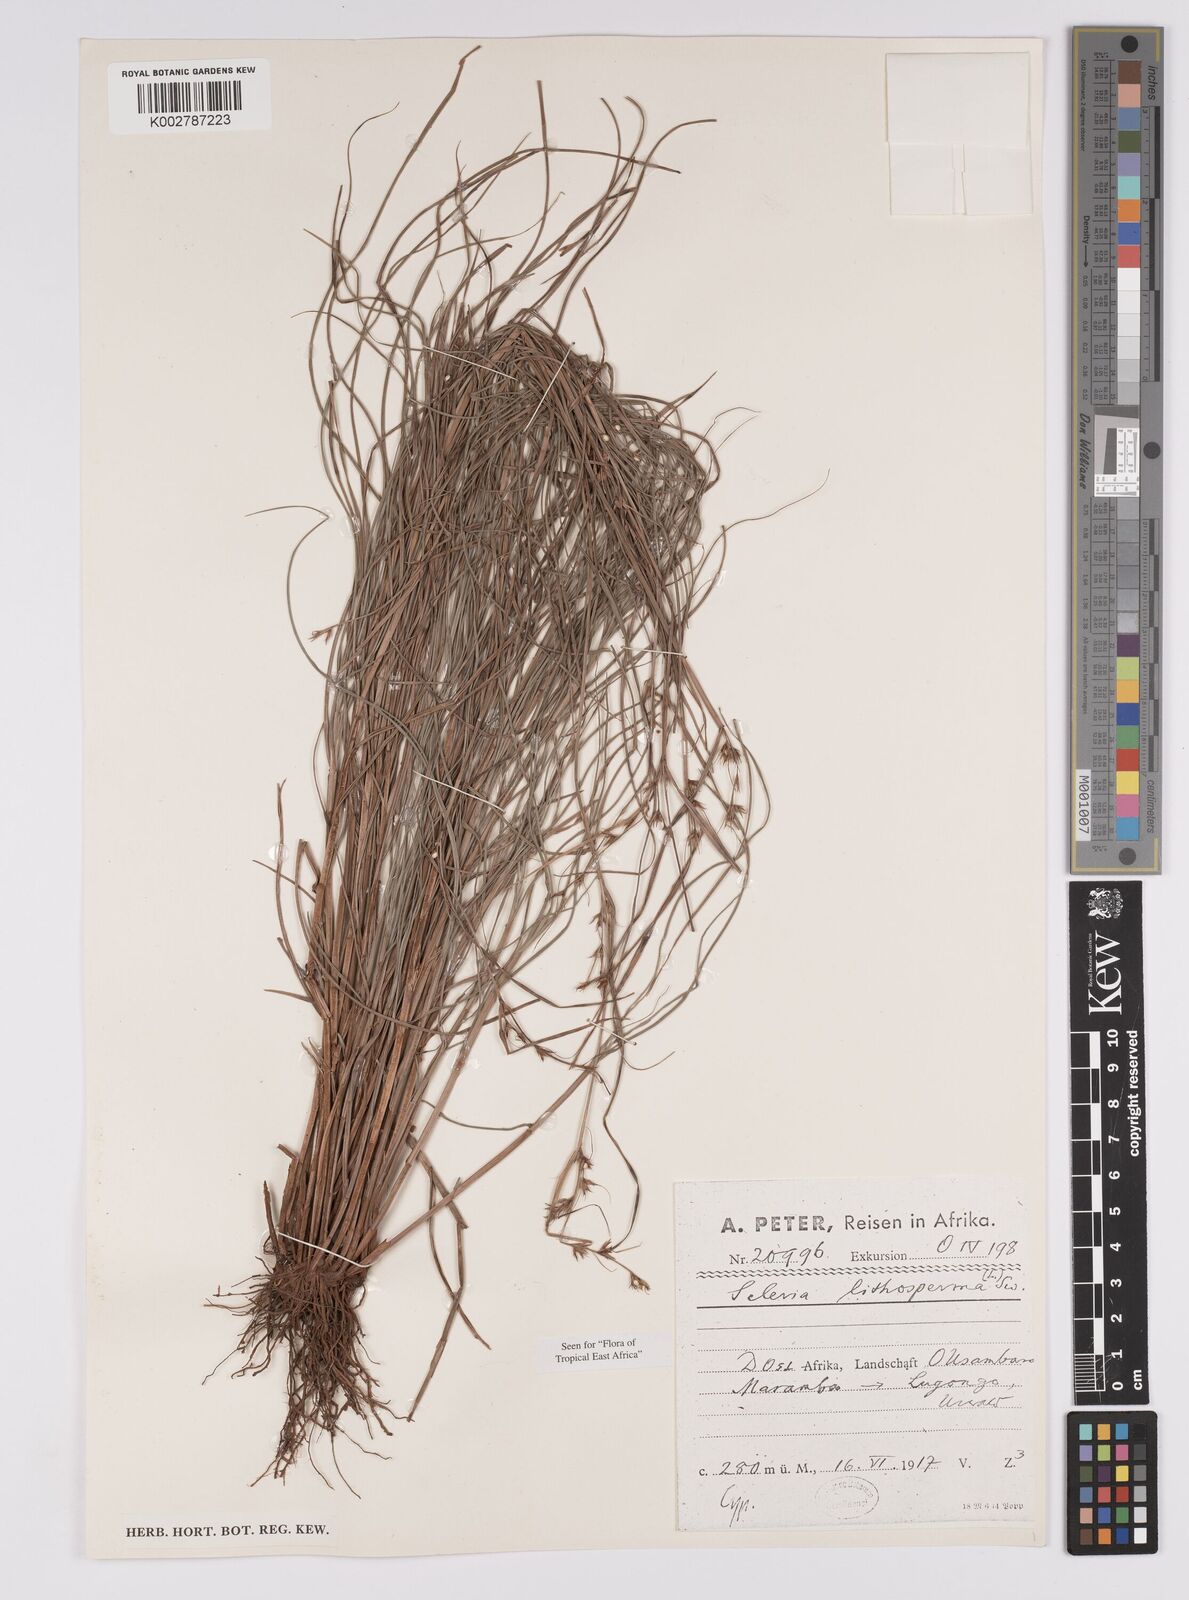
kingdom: Plantae
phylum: Tracheophyta
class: Liliopsida
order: Poales
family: Cyperaceae
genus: Scleria
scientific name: Scleria lithosperma
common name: Florida keys nut-rush
